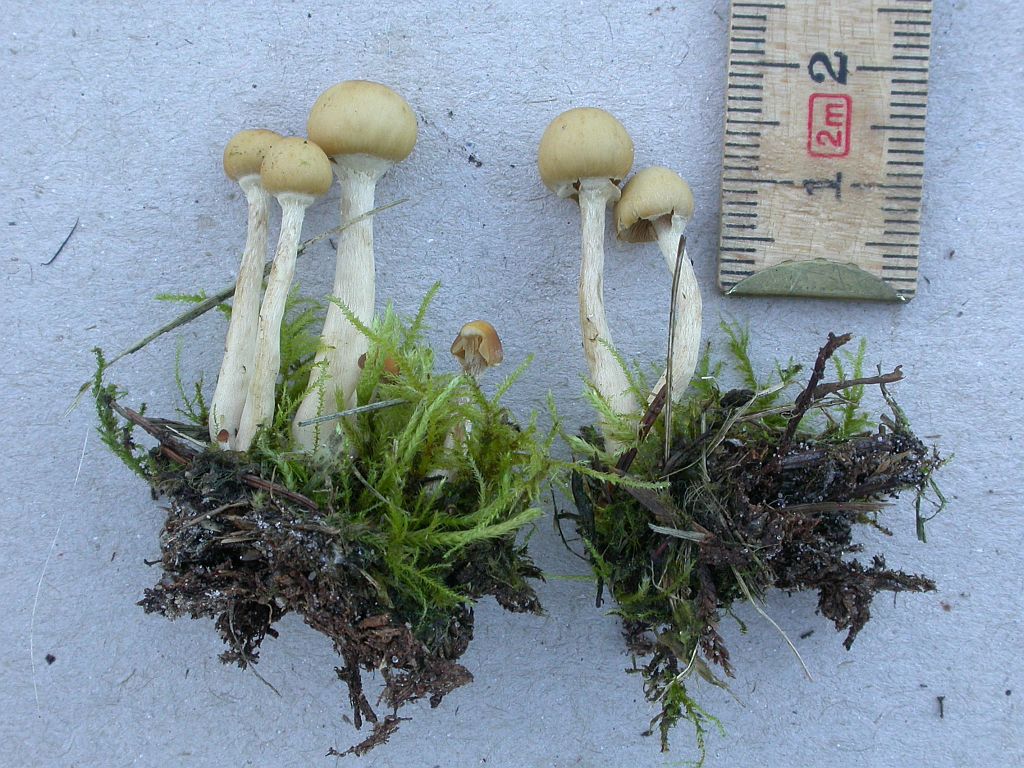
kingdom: Fungi
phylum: Basidiomycota
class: Agaricomycetes
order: Agaricales
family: Hymenogastraceae
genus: Galerina
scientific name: Galerina marginata
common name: randbæltet hjelmhat
